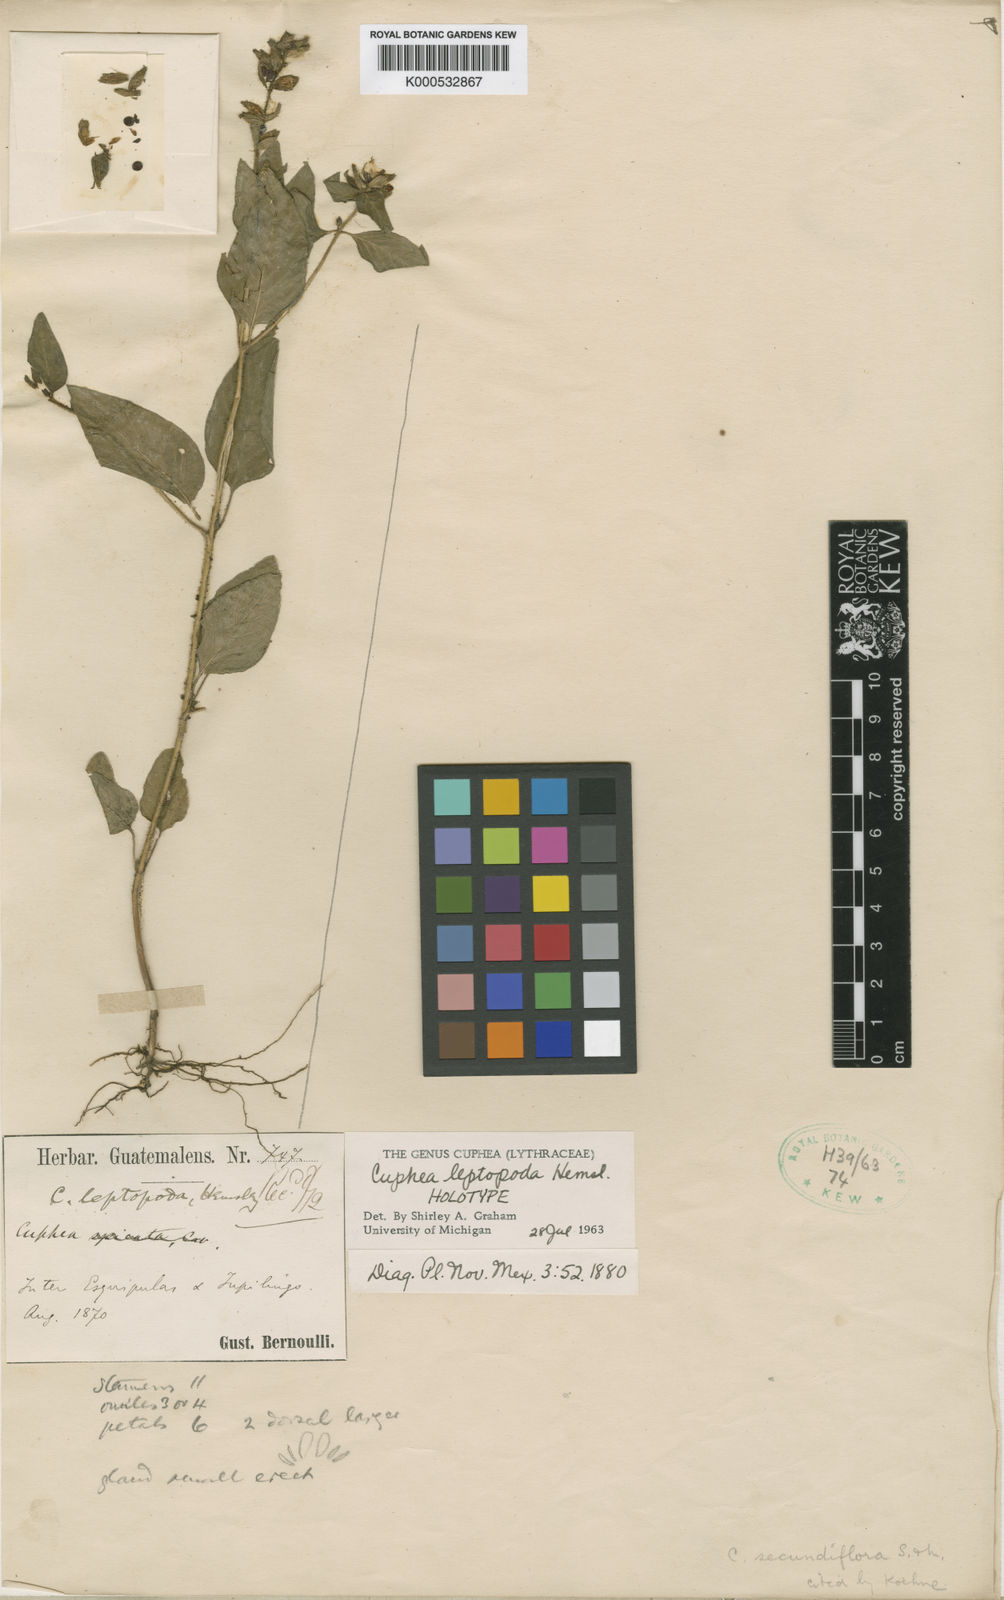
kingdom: Plantae
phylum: Tracheophyta
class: Magnoliopsida
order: Myrtales
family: Lythraceae
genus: Cuphea
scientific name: Cuphea secundiflora
